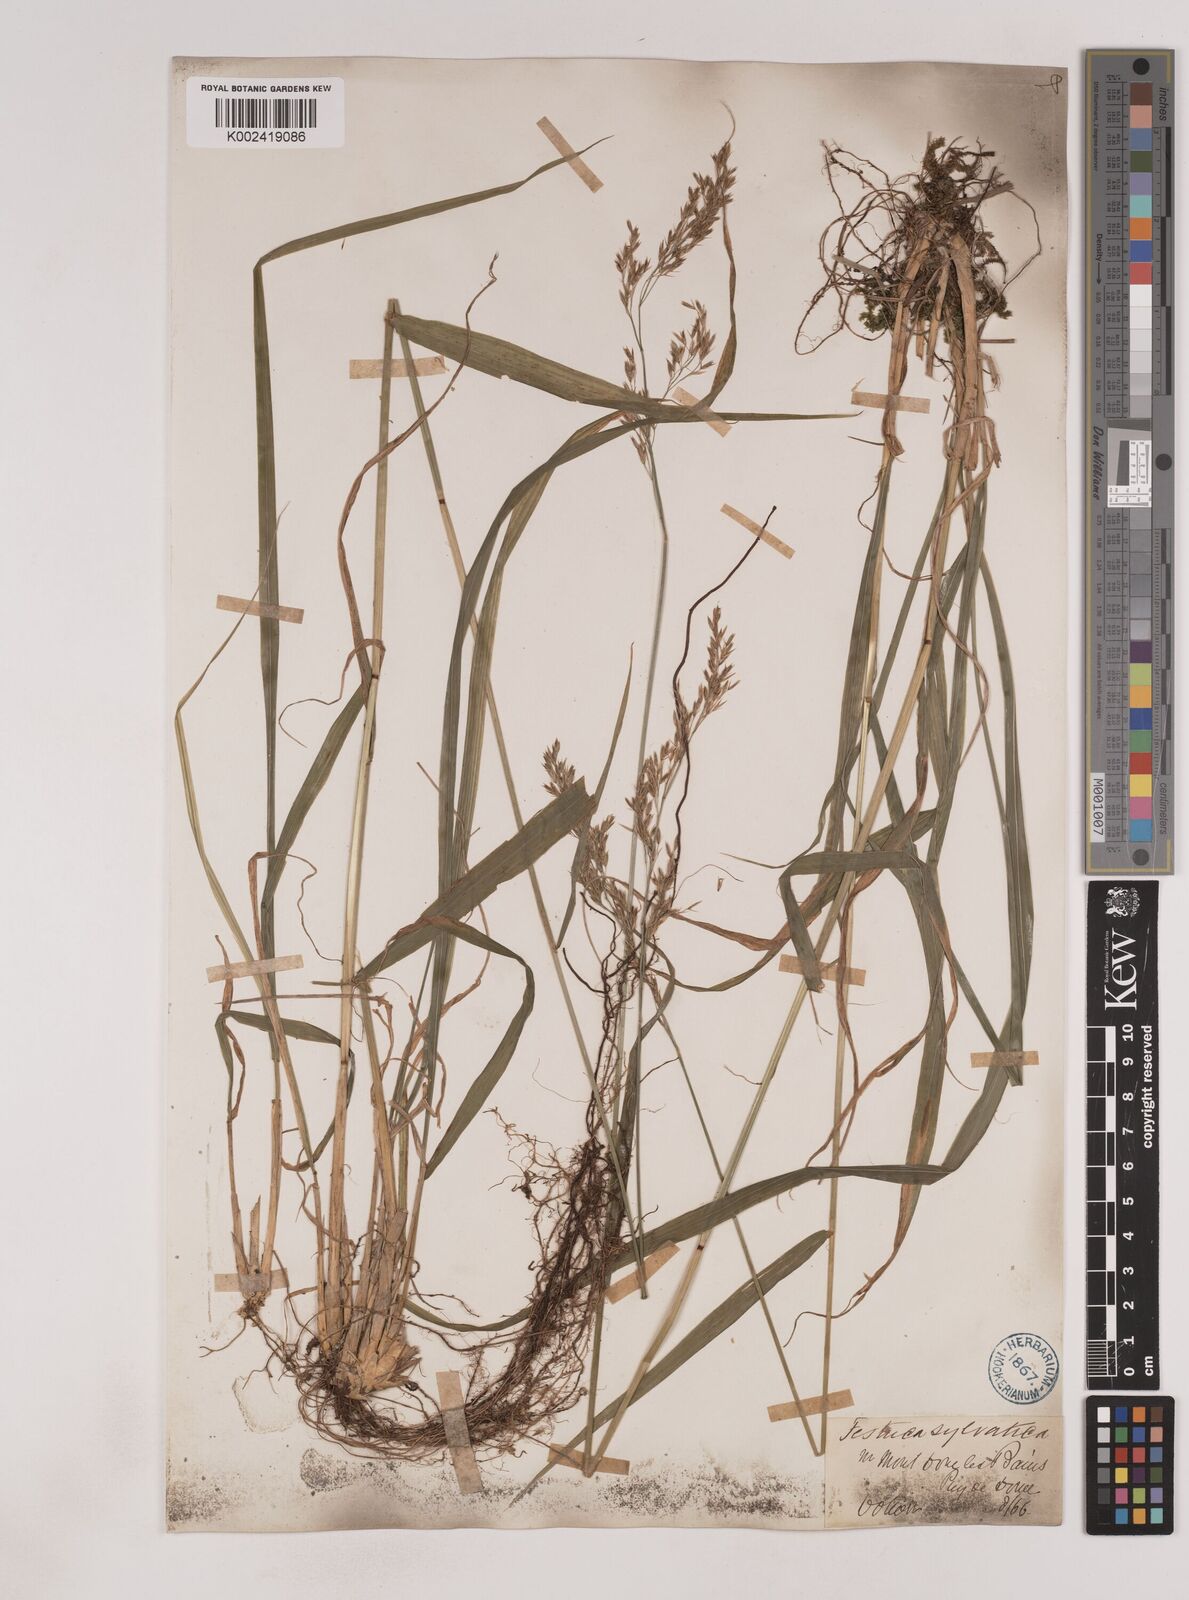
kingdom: Plantae
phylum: Tracheophyta
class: Liliopsida
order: Poales
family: Poaceae
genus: Festuca
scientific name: Festuca drymeja
